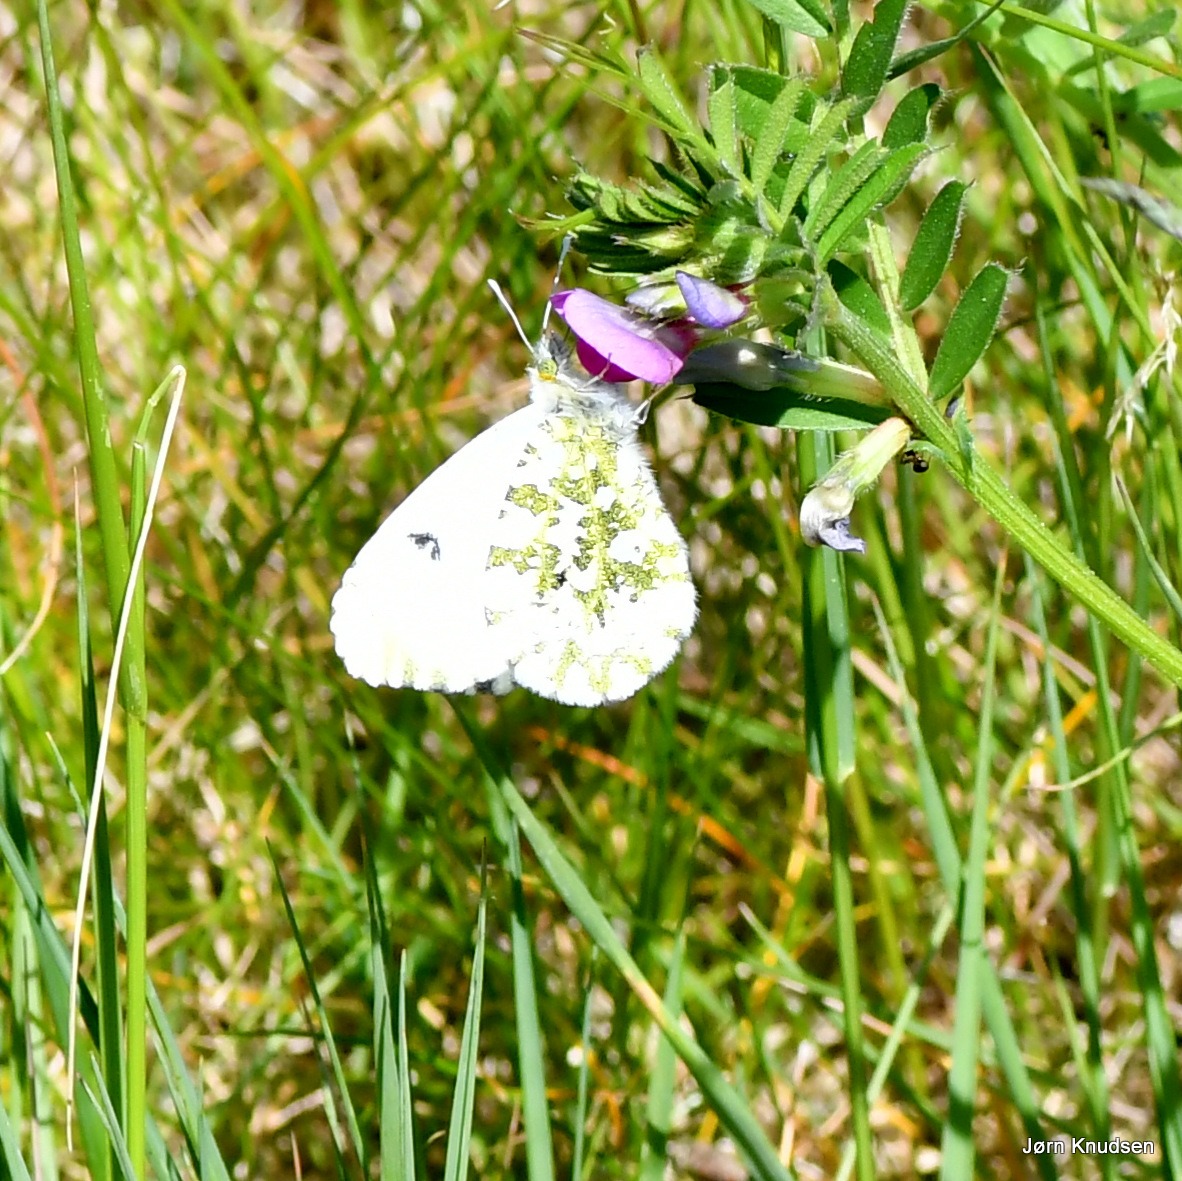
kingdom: Animalia
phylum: Arthropoda
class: Insecta
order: Lepidoptera
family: Pieridae
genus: Anthocharis
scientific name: Anthocharis cardamines
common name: Aurora
